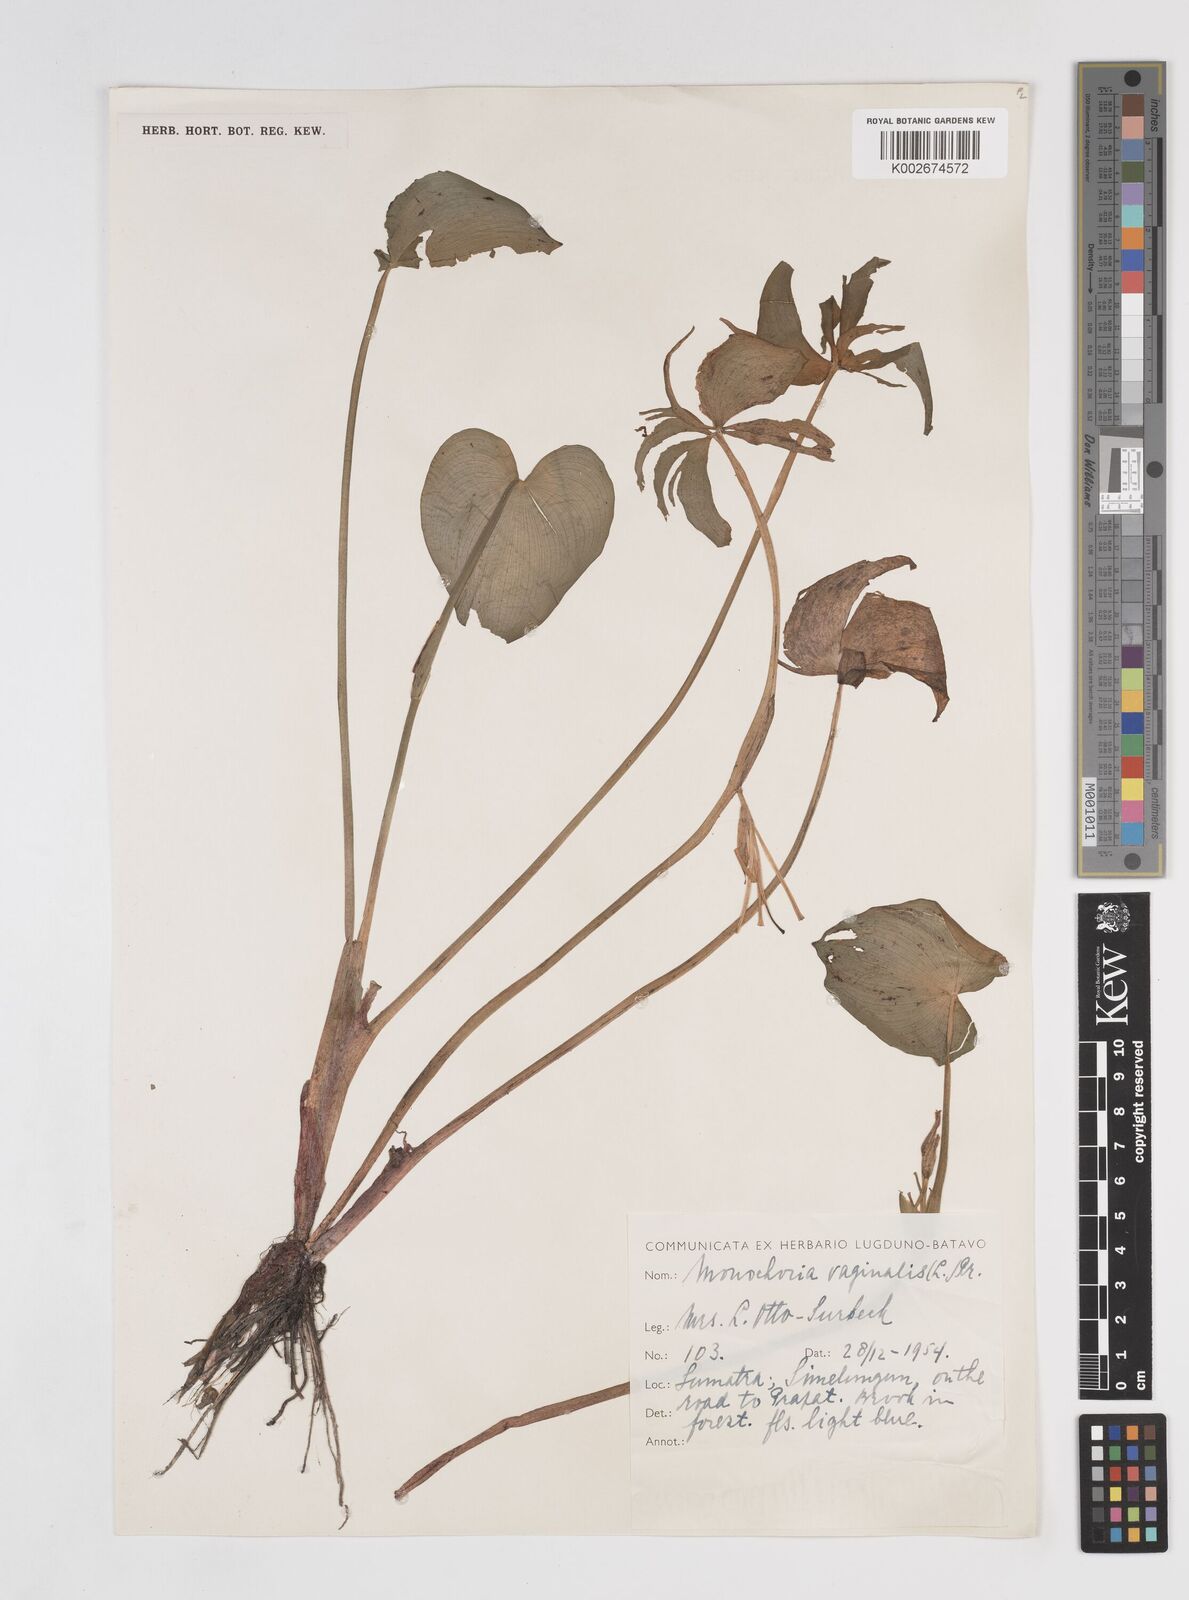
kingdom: Plantae
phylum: Tracheophyta
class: Liliopsida
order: Commelinales
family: Pontederiaceae
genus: Pontederia
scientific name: Pontederia vaginalis
